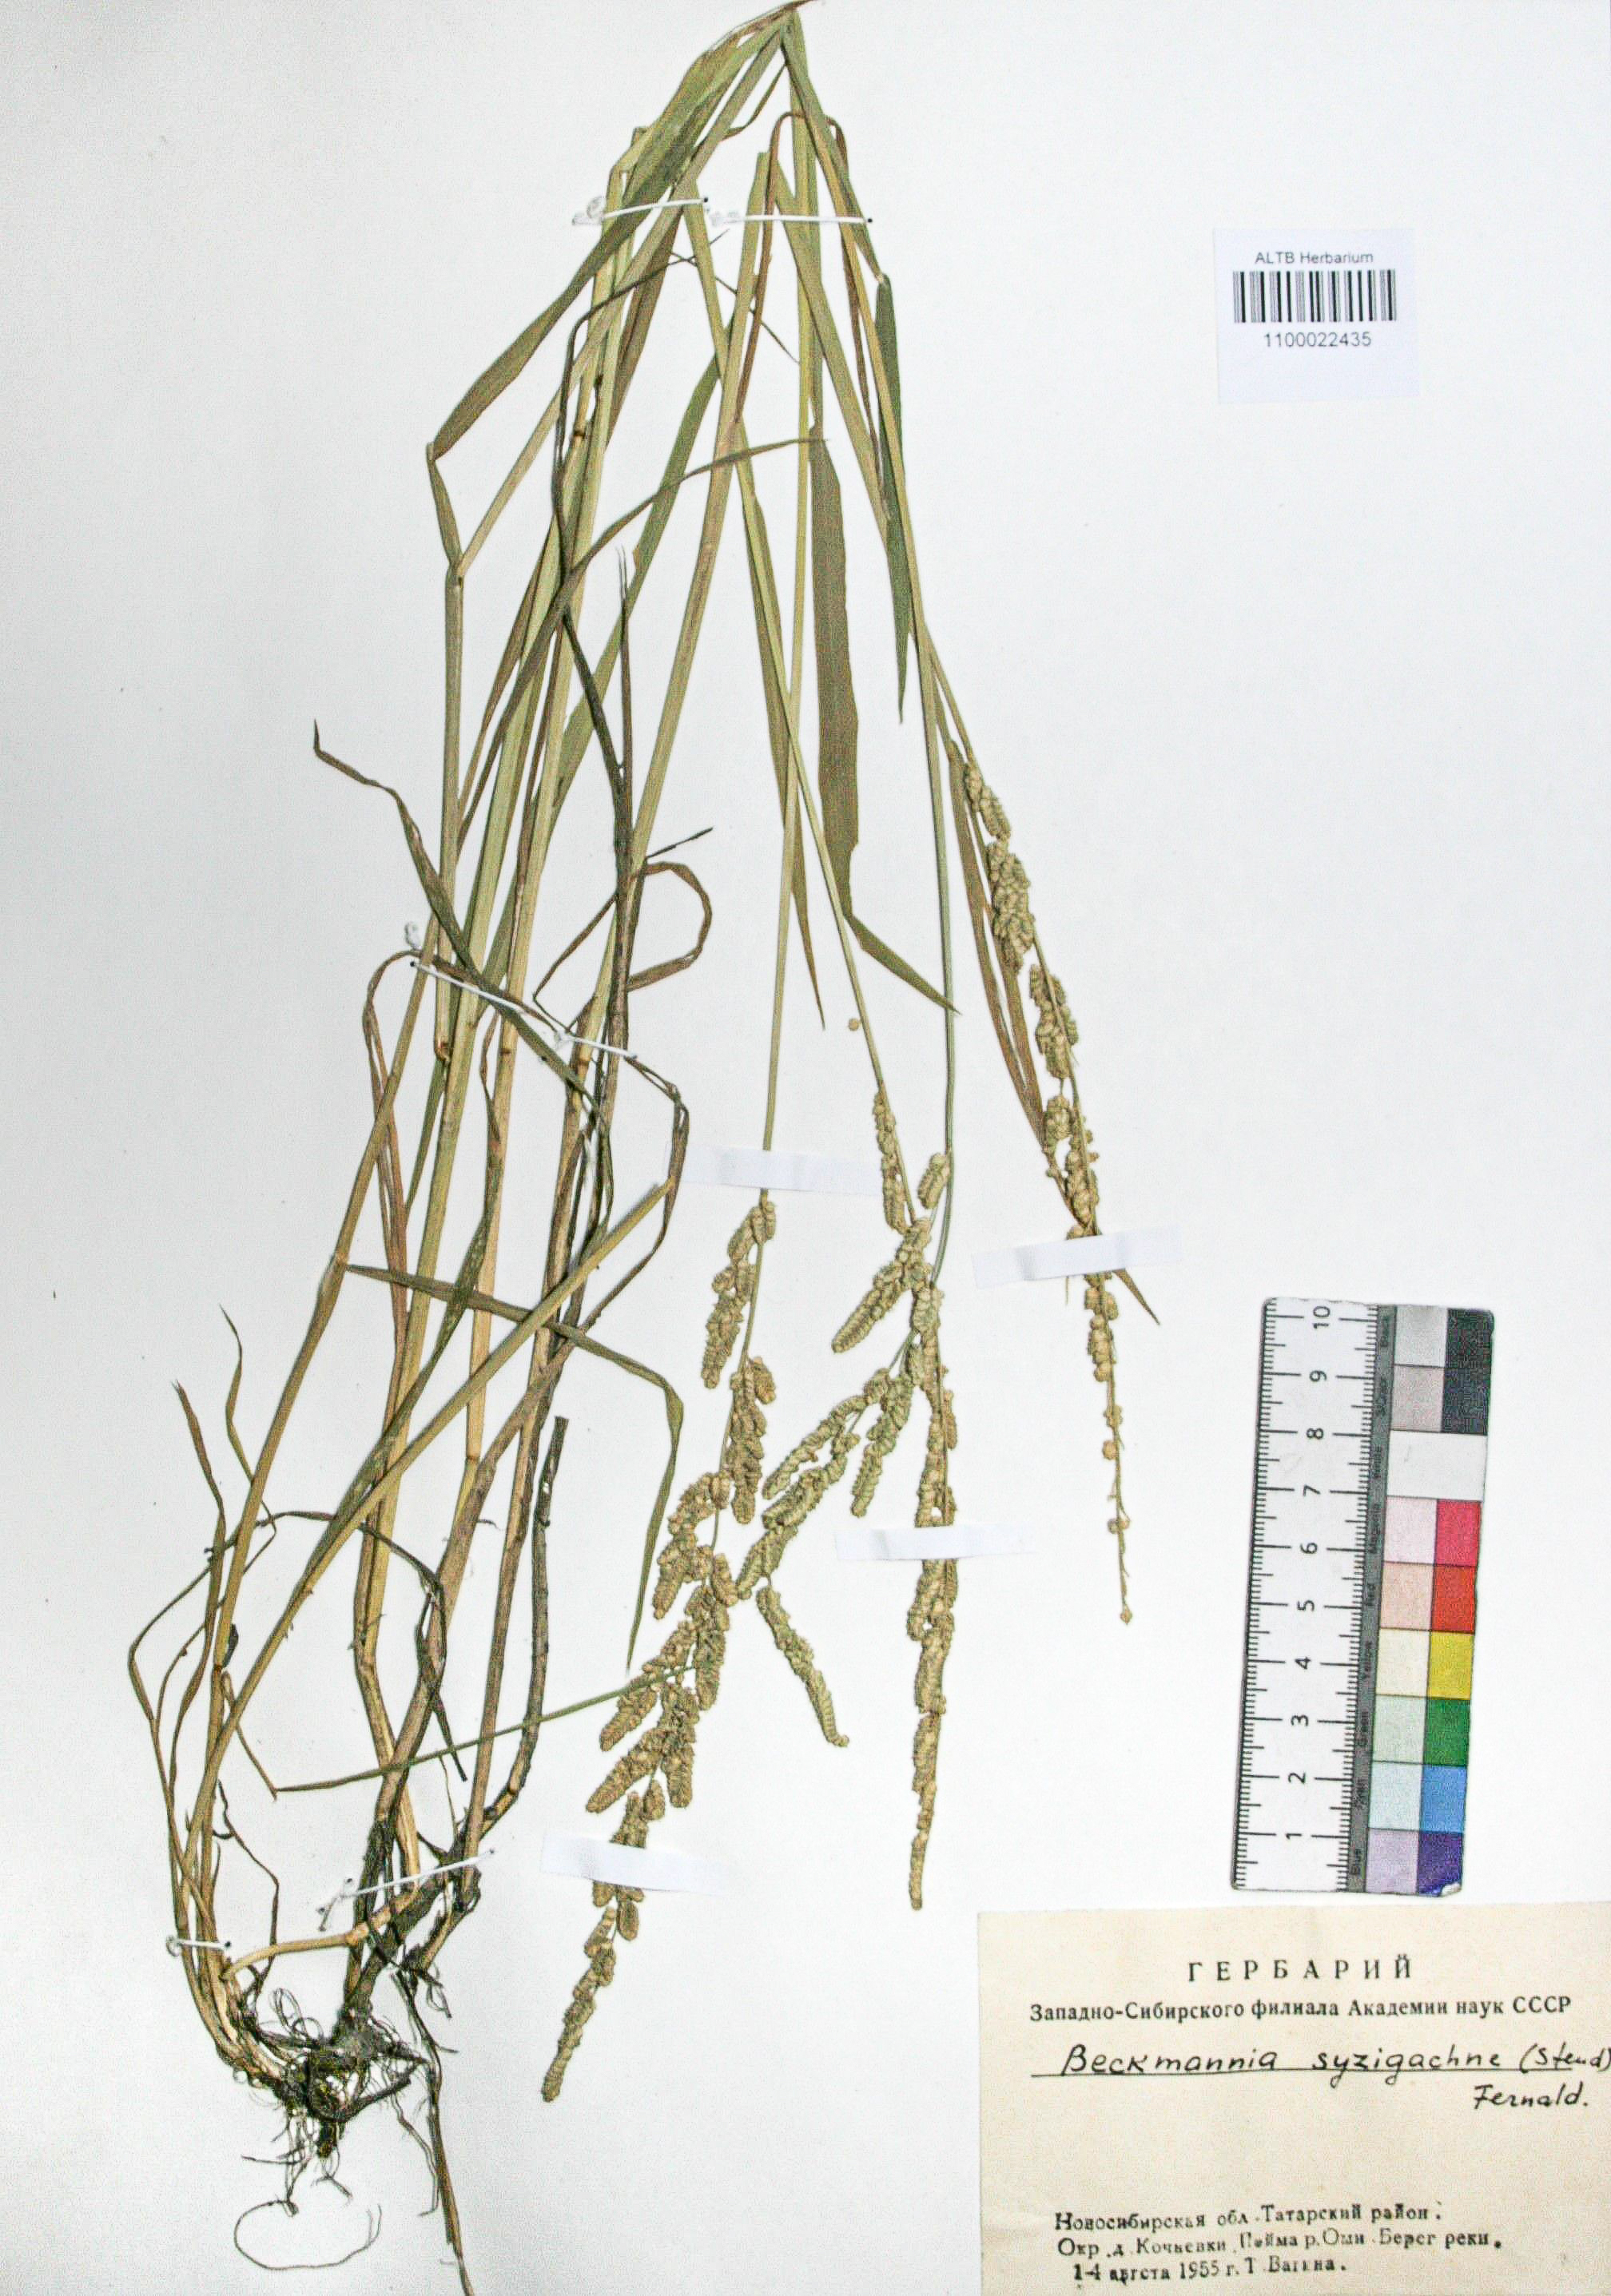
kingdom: Plantae
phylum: Tracheophyta
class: Liliopsida
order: Poales
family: Poaceae
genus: Beckmannia
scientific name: Beckmannia syzigachne
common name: American slough-grass
